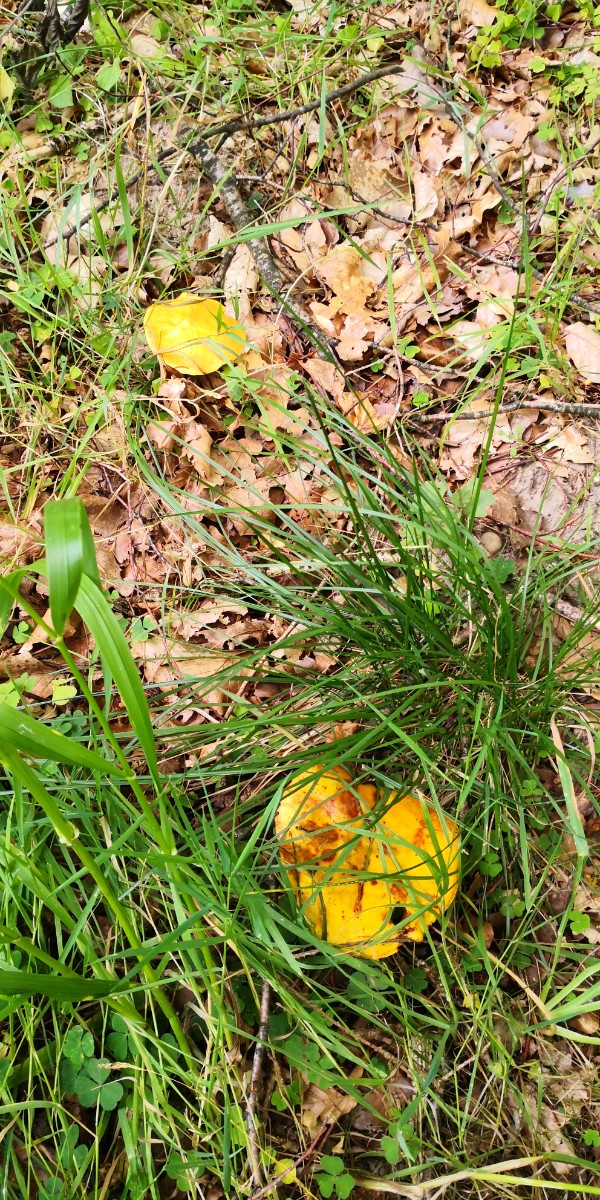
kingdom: Fungi
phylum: Basidiomycota
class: Agaricomycetes
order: Boletales
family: Suillaceae
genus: Suillus
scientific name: Suillus grevillei
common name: lærke-slimrørhat
